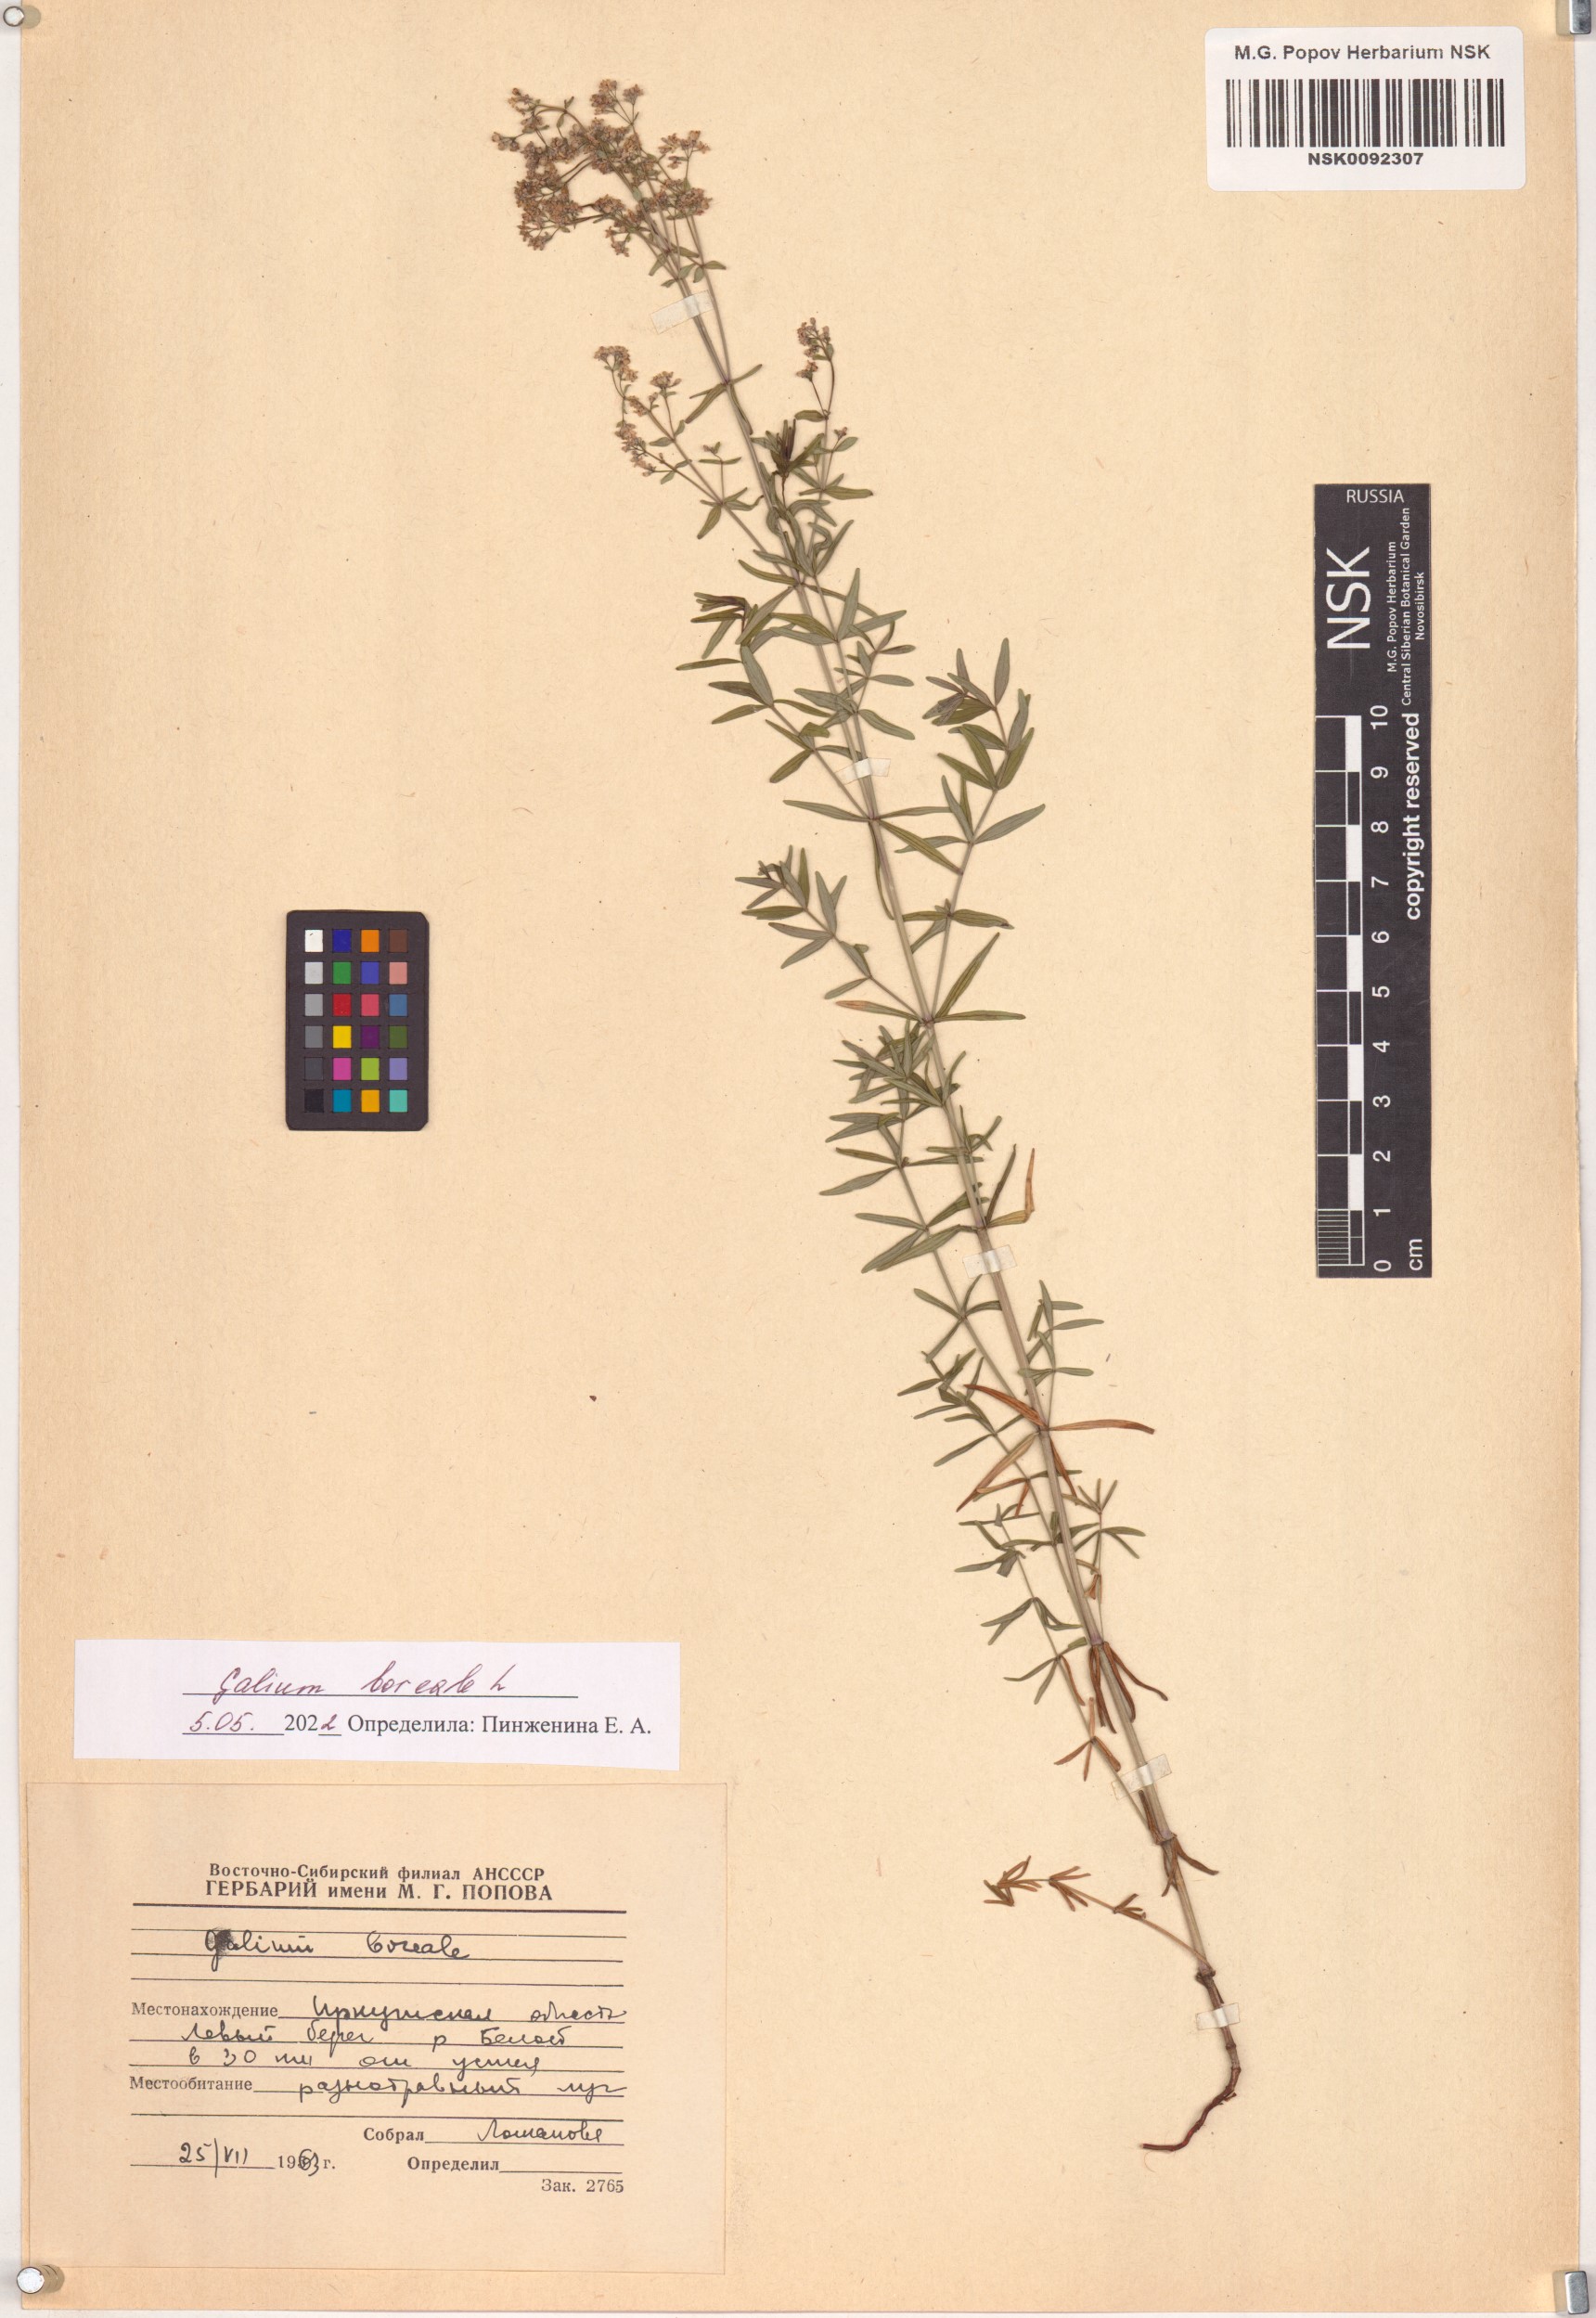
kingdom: Plantae
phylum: Tracheophyta
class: Magnoliopsida
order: Gentianales
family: Rubiaceae
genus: Galium
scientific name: Galium boreale
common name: Northern bedstraw
